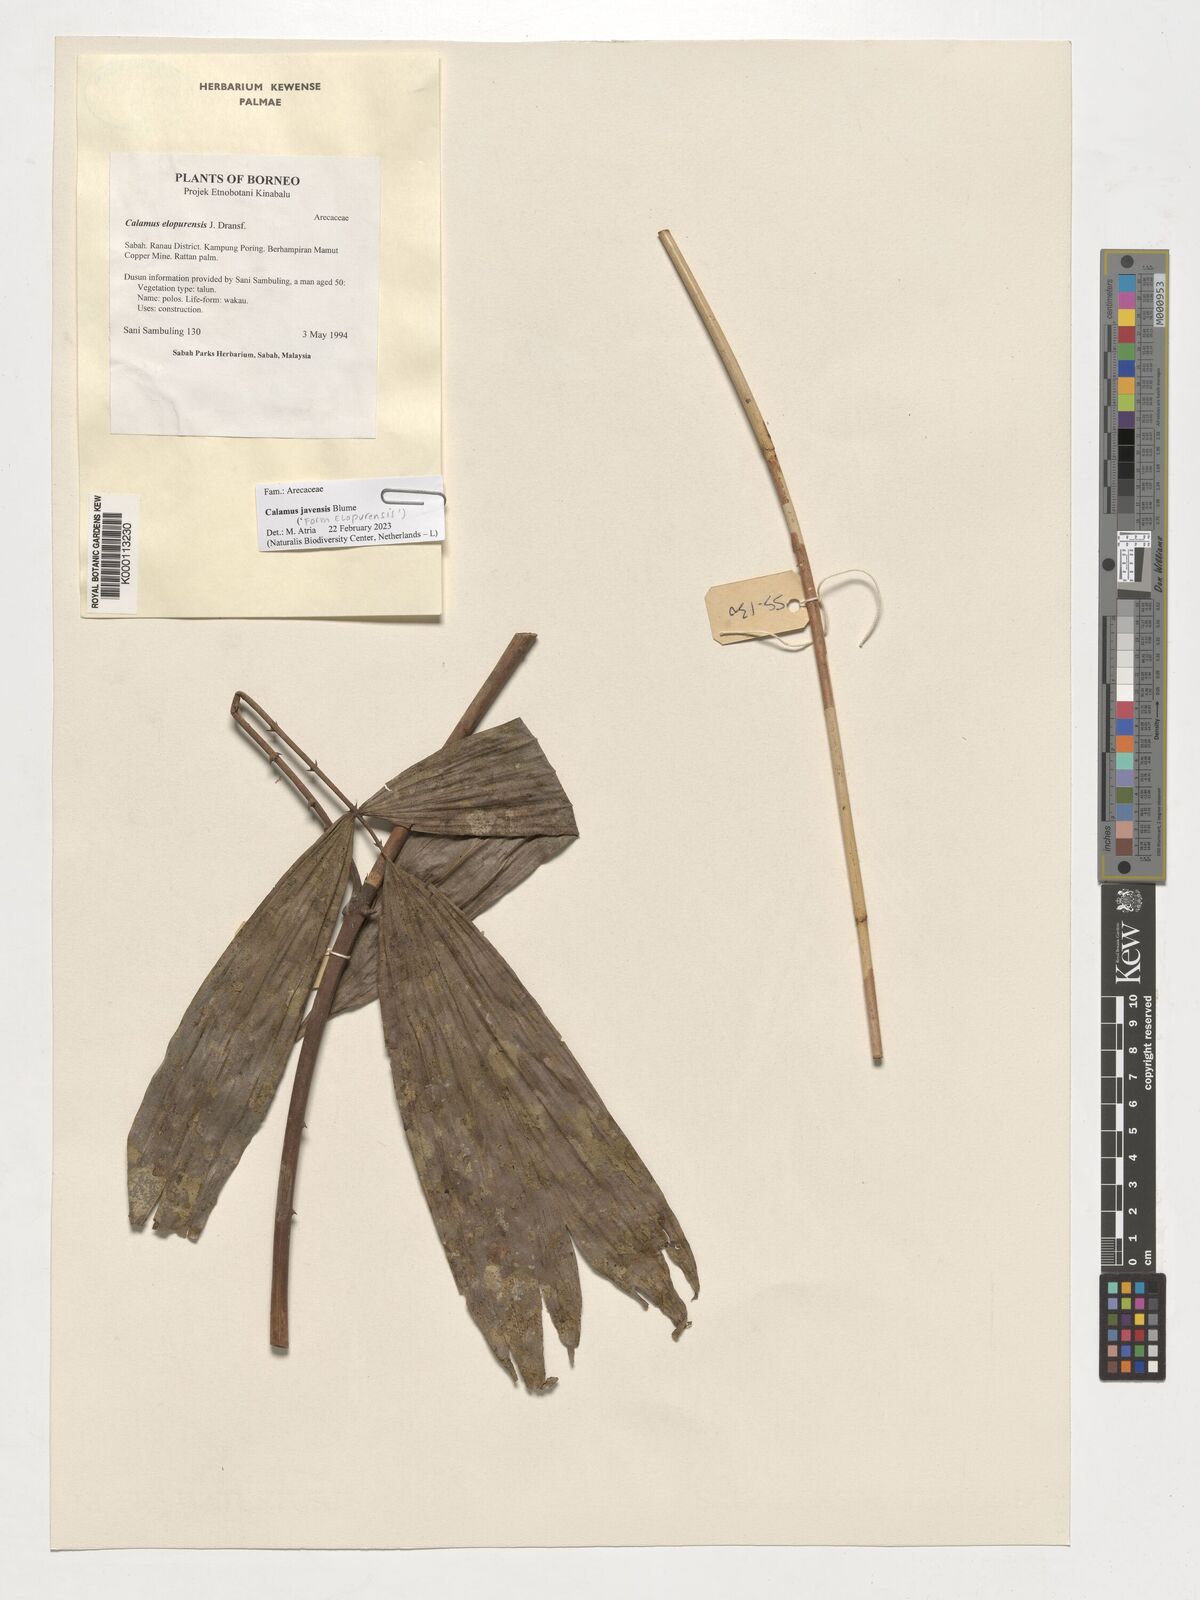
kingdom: Plantae
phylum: Tracheophyta
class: Liliopsida
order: Arecales
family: Arecaceae
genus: Calamus
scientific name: Calamus javensis
